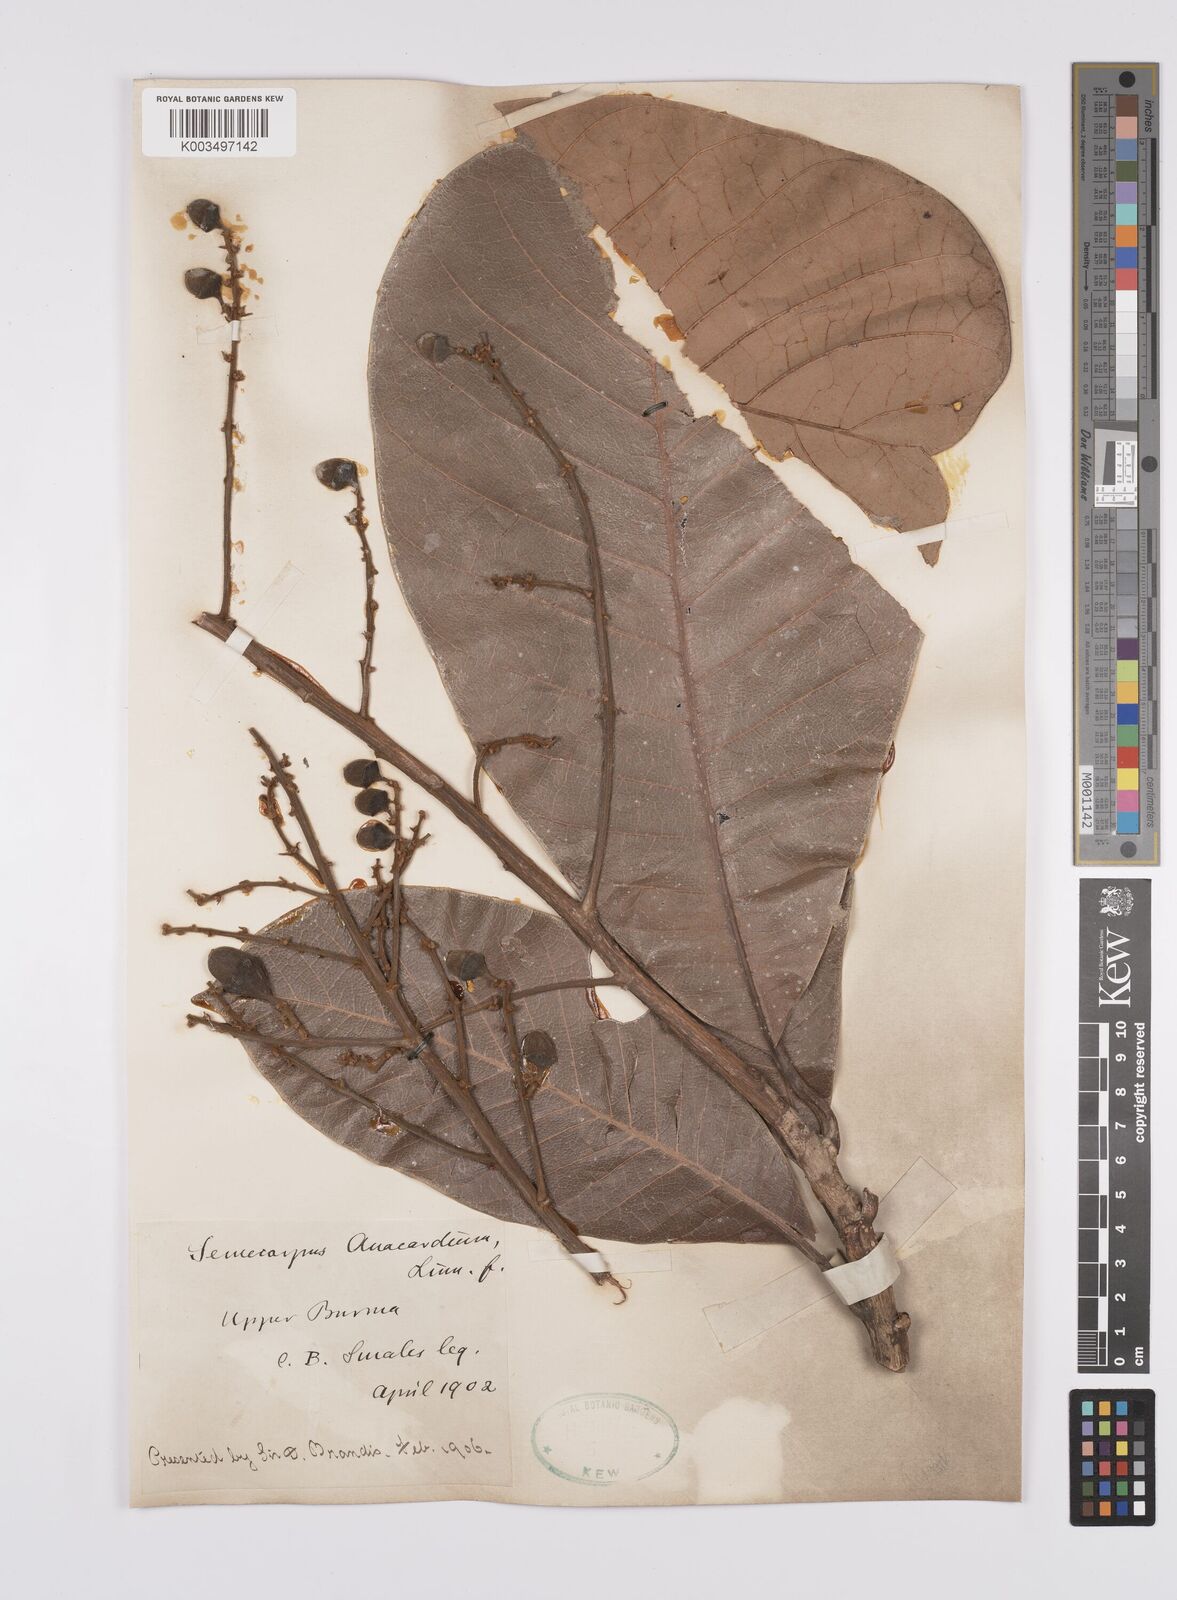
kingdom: Plantae
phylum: Tracheophyta
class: Magnoliopsida
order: Sapindales
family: Anacardiaceae
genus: Semecarpus
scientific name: Semecarpus anacardium
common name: Marking nut-tree
